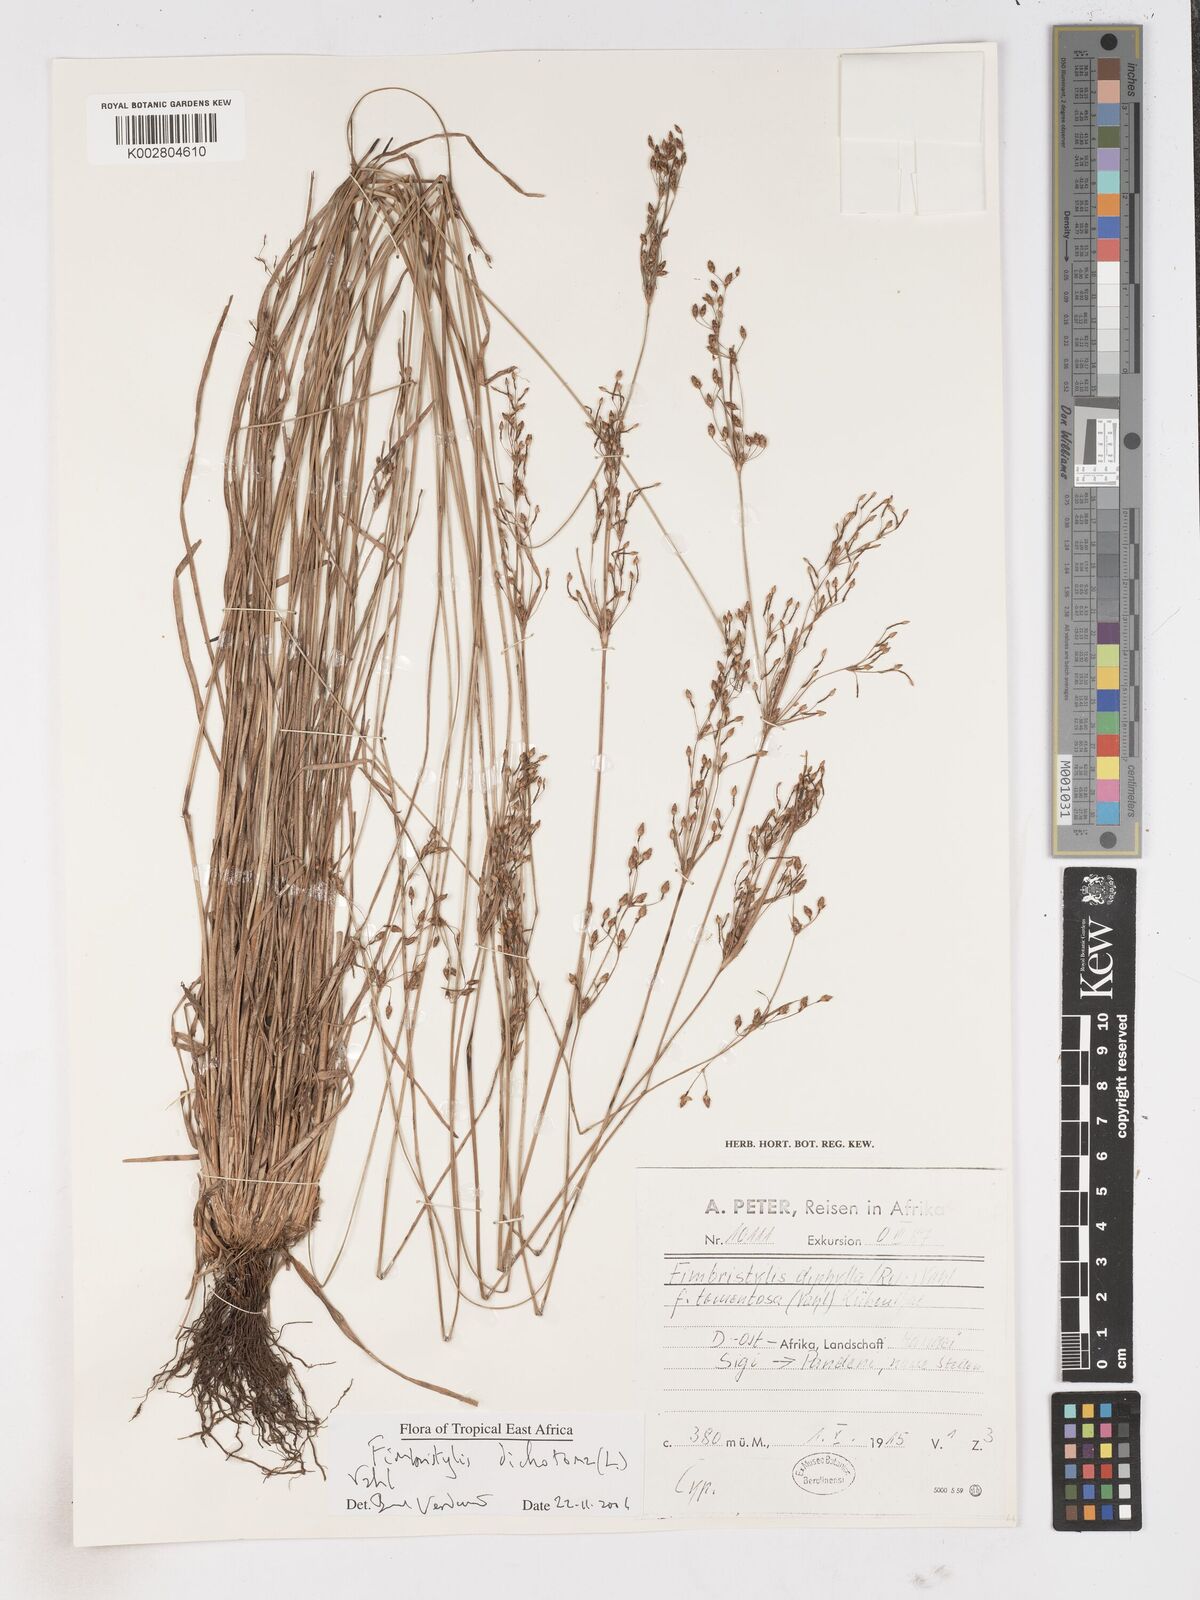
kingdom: Plantae
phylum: Tracheophyta
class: Liliopsida
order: Poales
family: Cyperaceae
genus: Fimbristylis
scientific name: Fimbristylis dichotoma
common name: Forked fimbry
